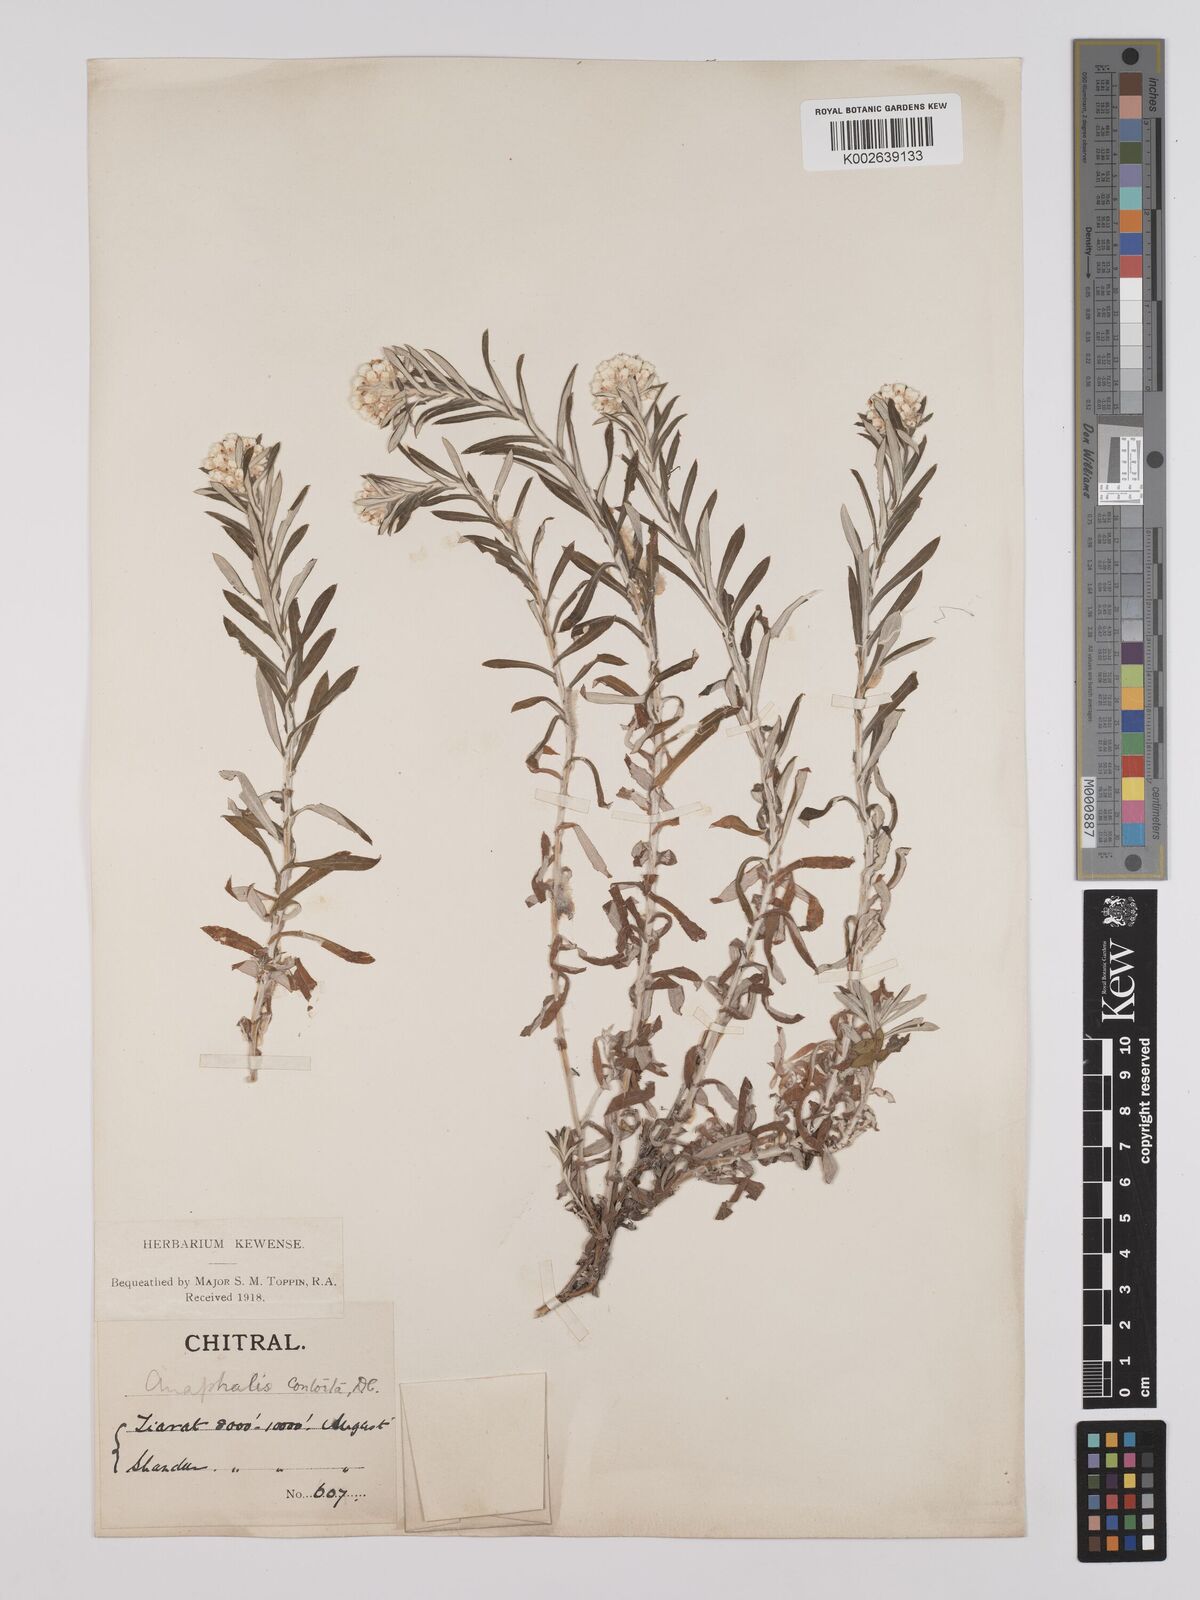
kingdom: Plantae
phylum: Tracheophyta
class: Magnoliopsida
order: Asterales
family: Asteraceae
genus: Anaphalis
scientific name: Anaphalis contorta
